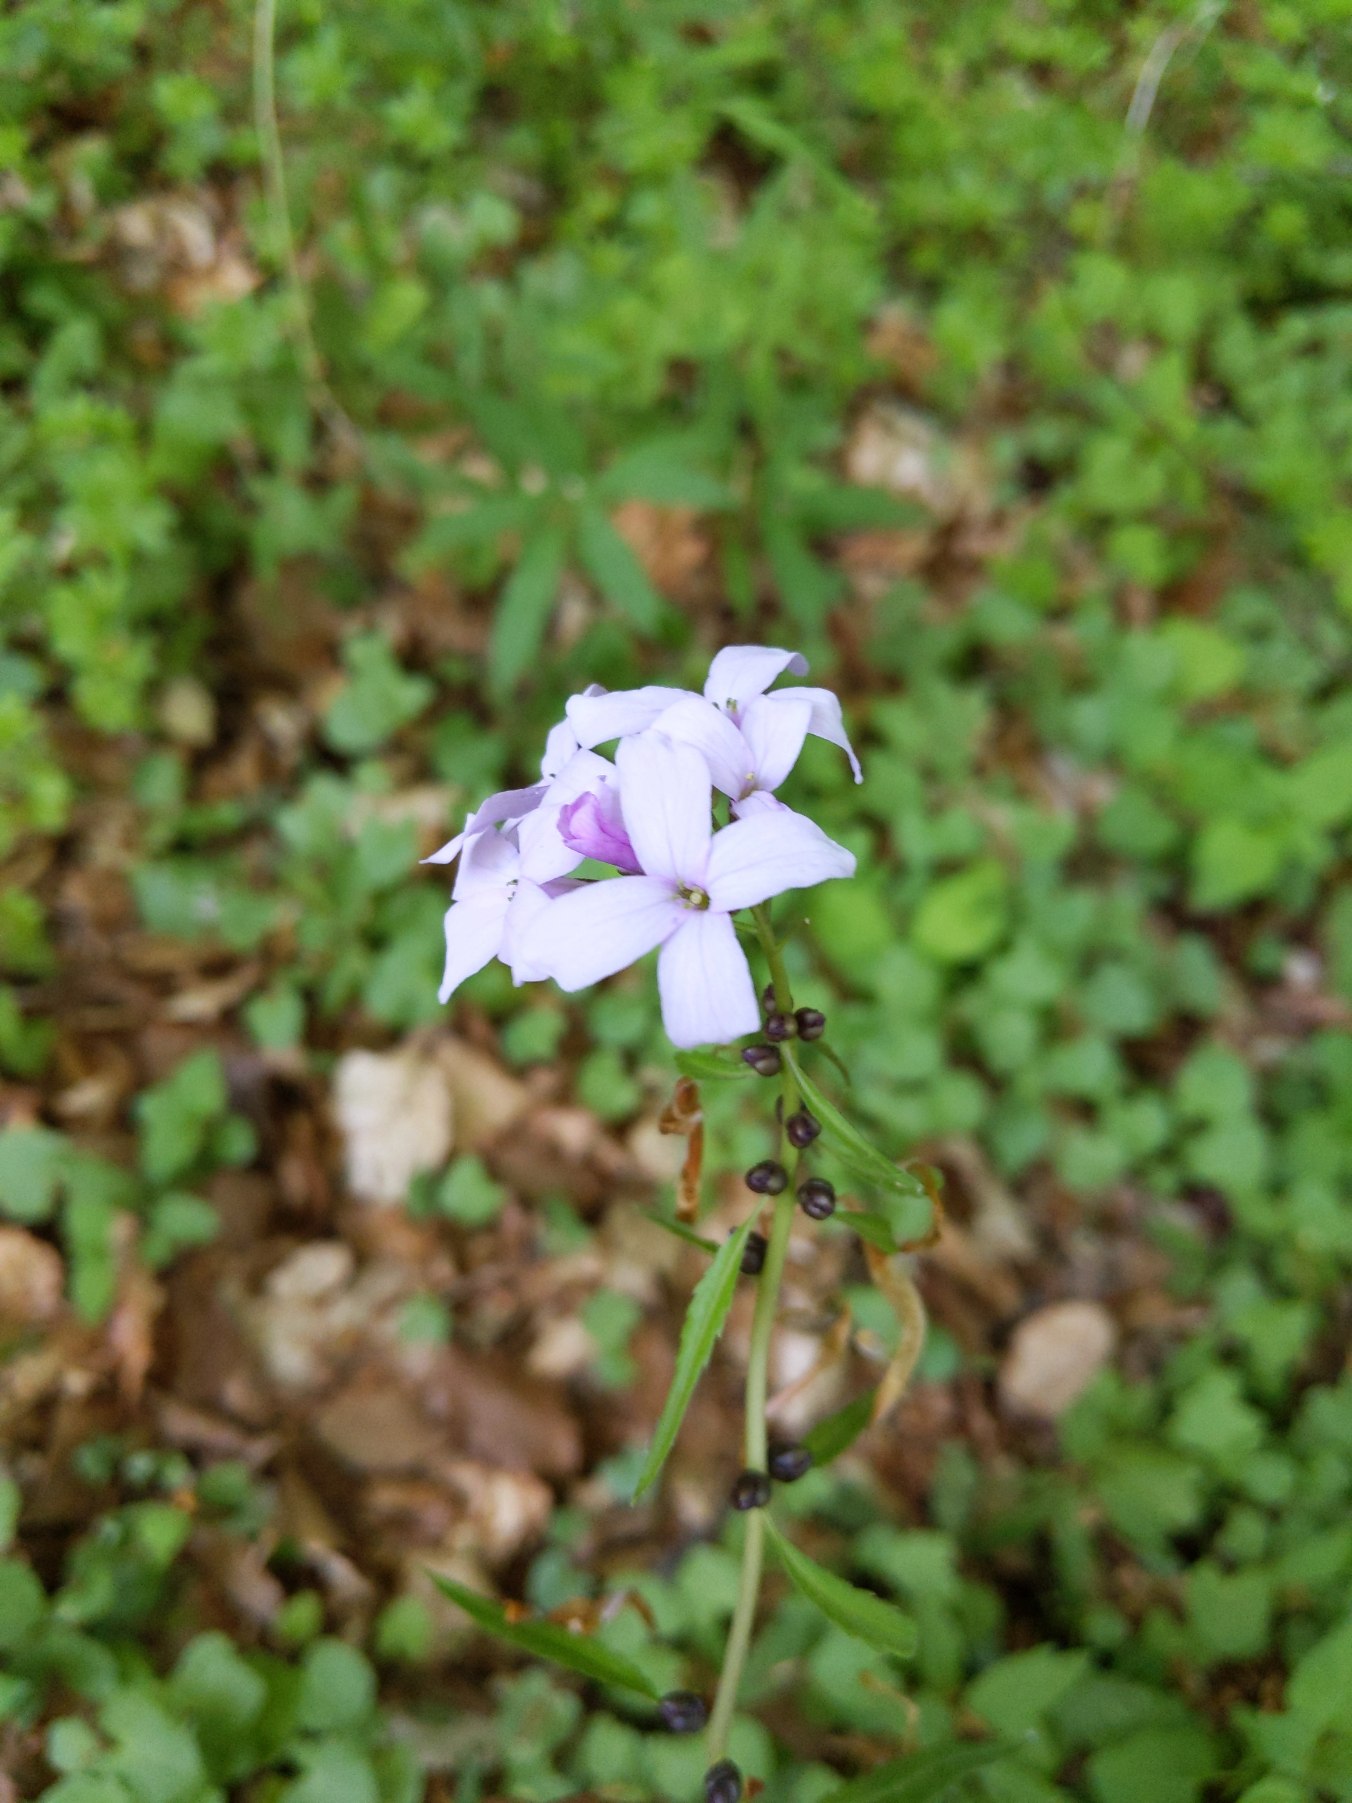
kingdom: Plantae
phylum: Tracheophyta
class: Magnoliopsida
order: Brassicales
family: Brassicaceae
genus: Cardamine
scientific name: Cardamine bulbifera
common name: Tandrod
